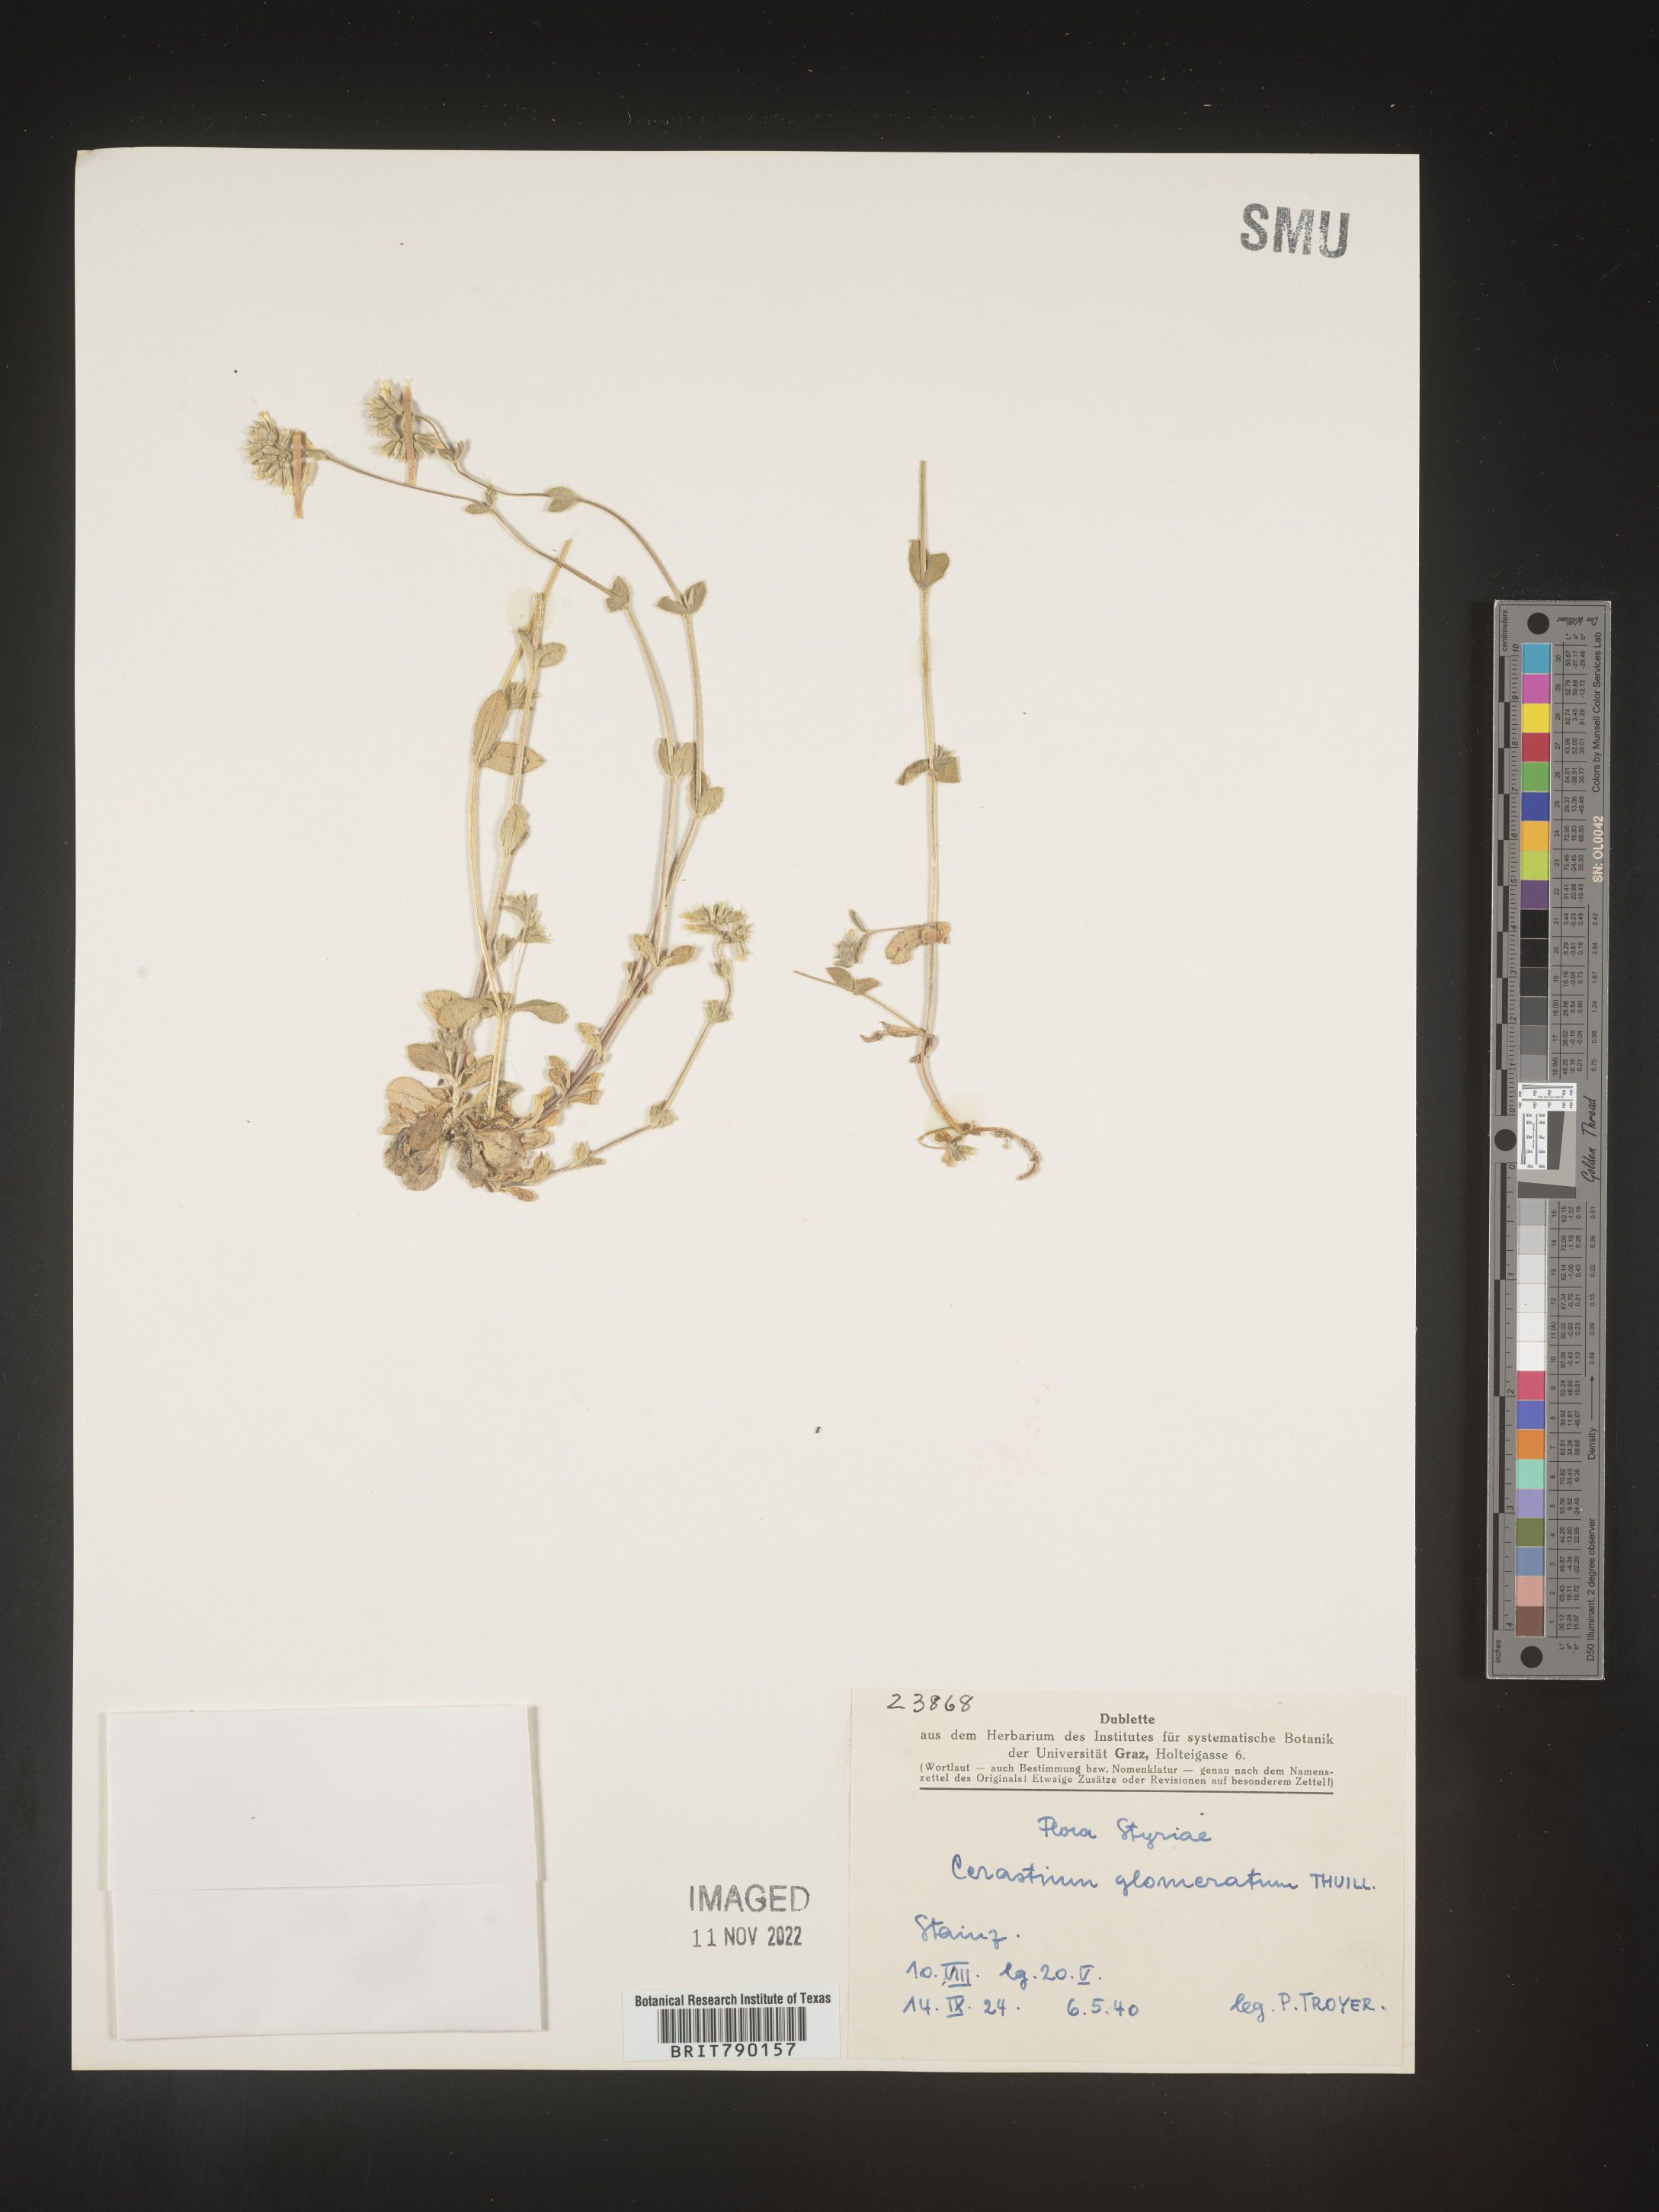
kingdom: Plantae
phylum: Tracheophyta
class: Magnoliopsida
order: Caryophyllales
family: Caryophyllaceae
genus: Cerastium
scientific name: Cerastium
